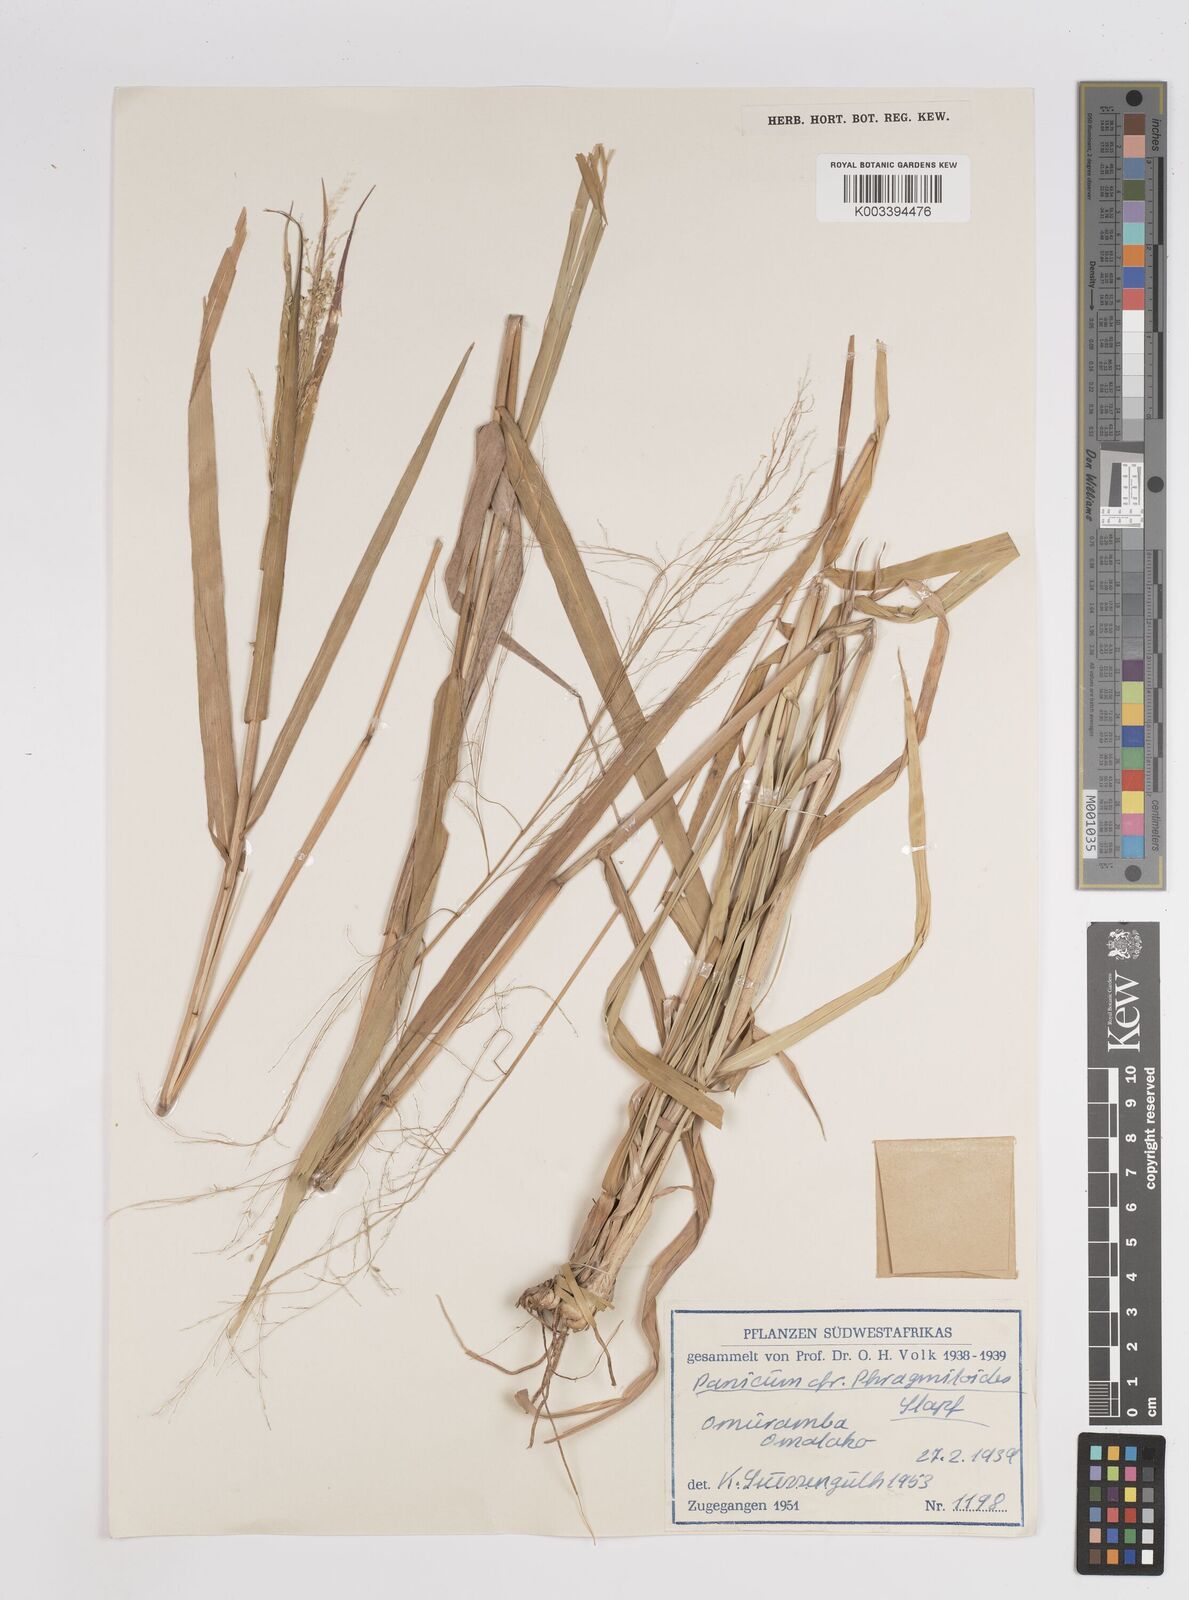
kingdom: Plantae
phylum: Tracheophyta
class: Liliopsida
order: Poales
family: Poaceae
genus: Panicum
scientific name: Panicum
